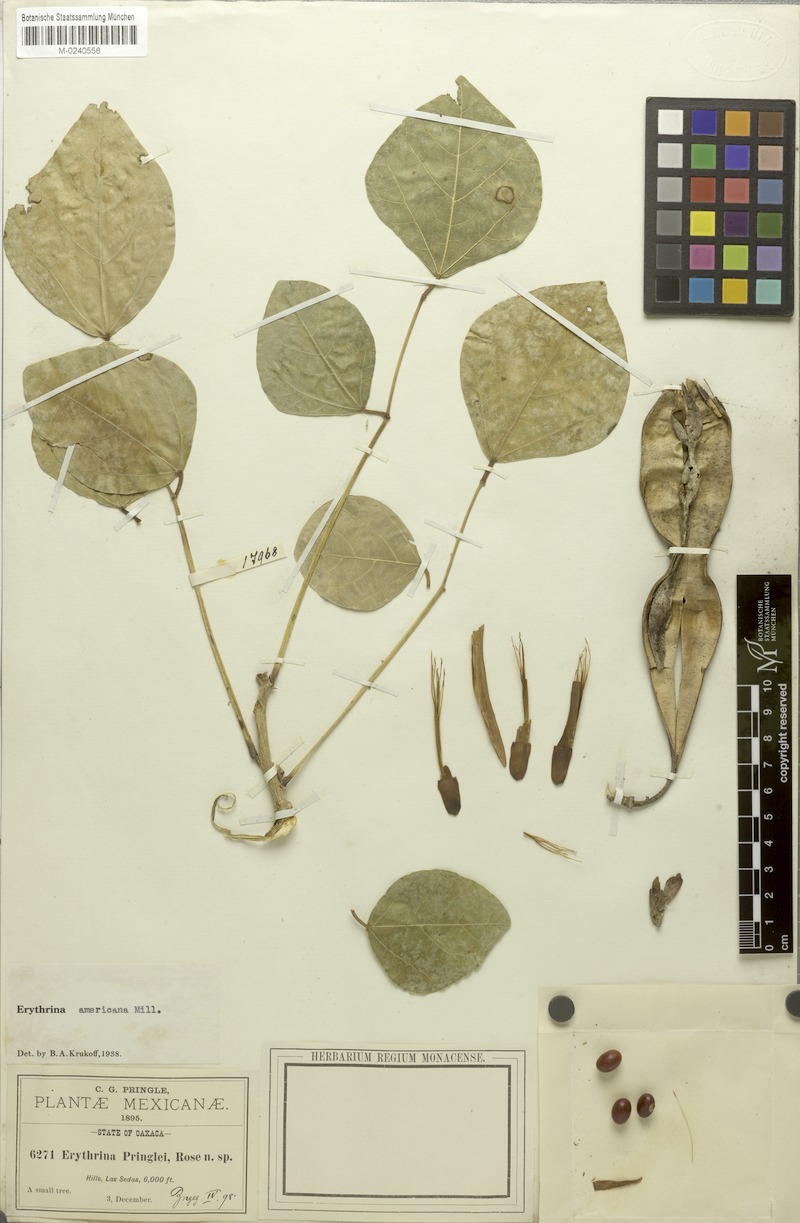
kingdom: Plantae
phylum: Tracheophyta
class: Magnoliopsida
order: Fabales
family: Fabaceae
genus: Erythrina
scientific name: Erythrina americana
